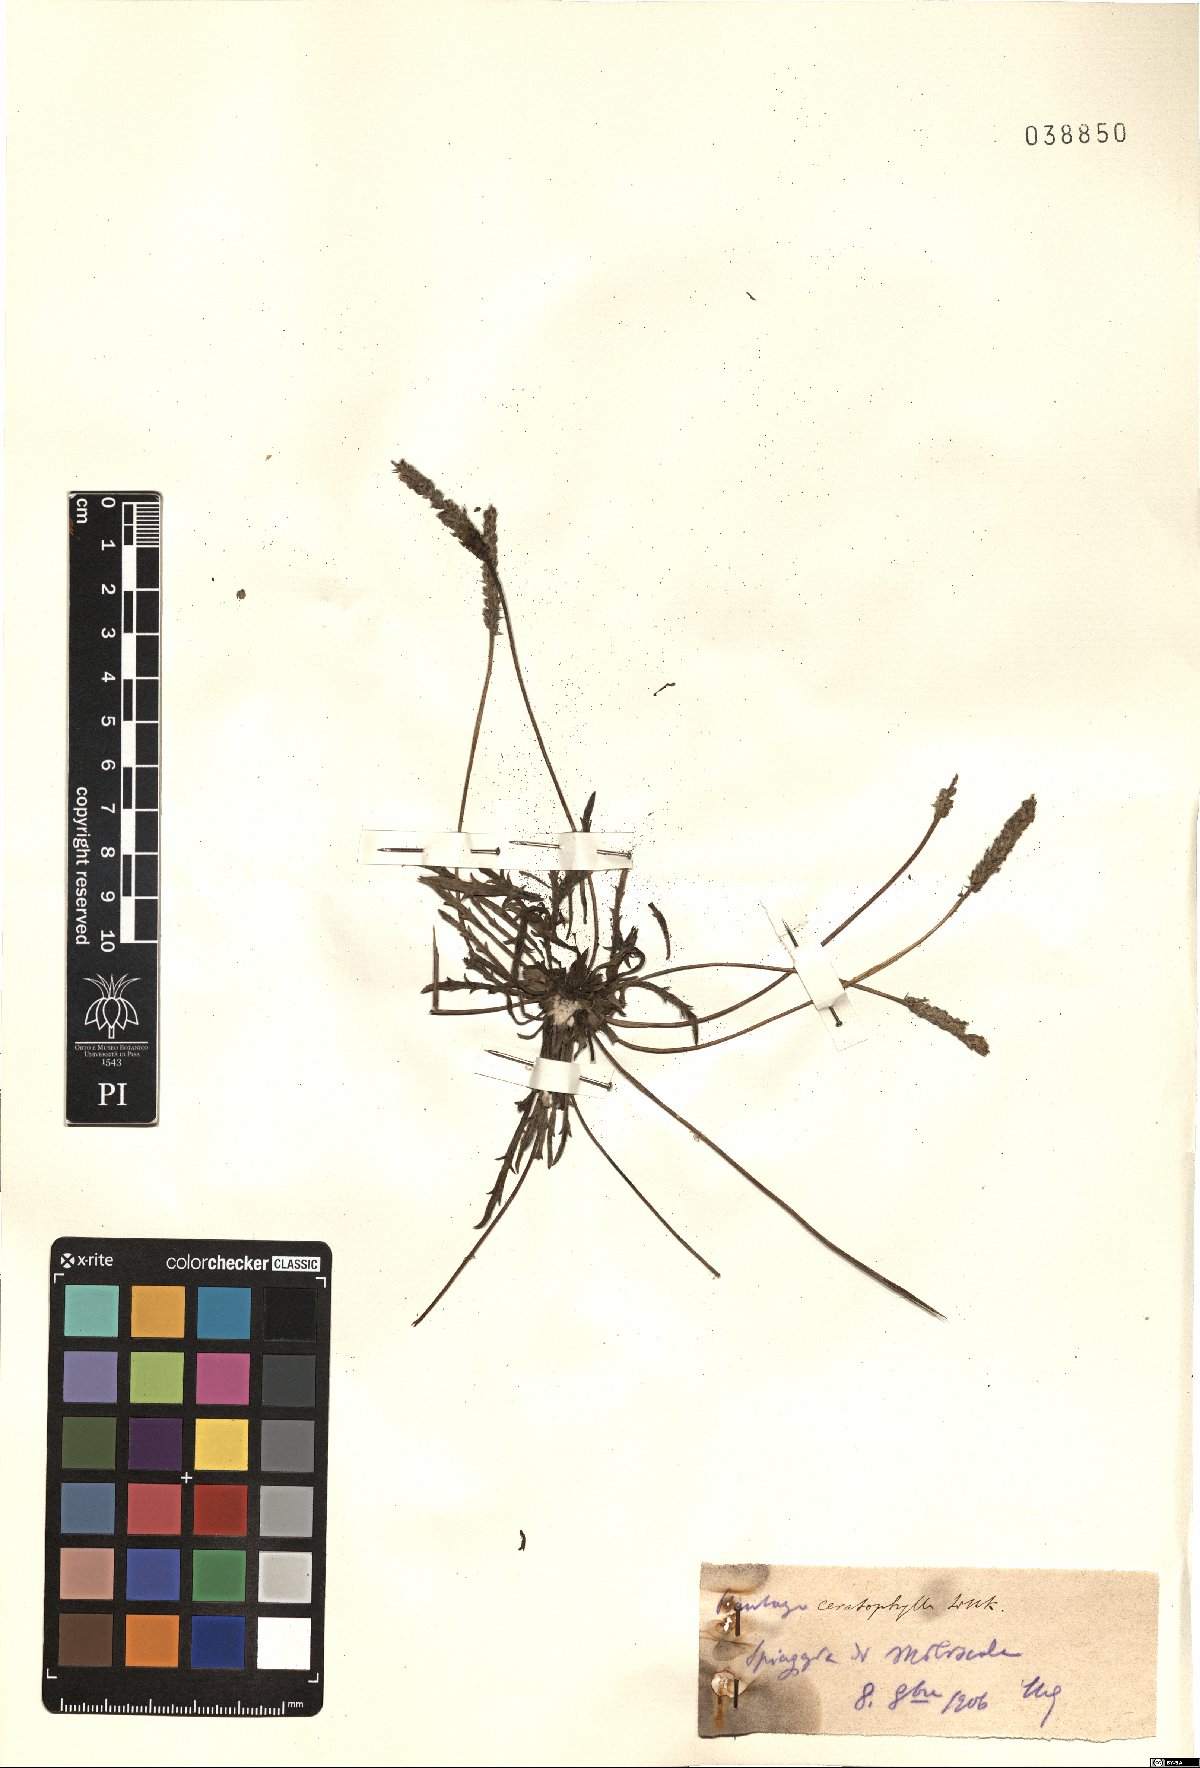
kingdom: Plantae
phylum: Tracheophyta
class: Magnoliopsida
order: Lamiales
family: Plantaginaceae
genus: Plantago
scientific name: Plantago coronopus
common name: Buck's-horn plantain
